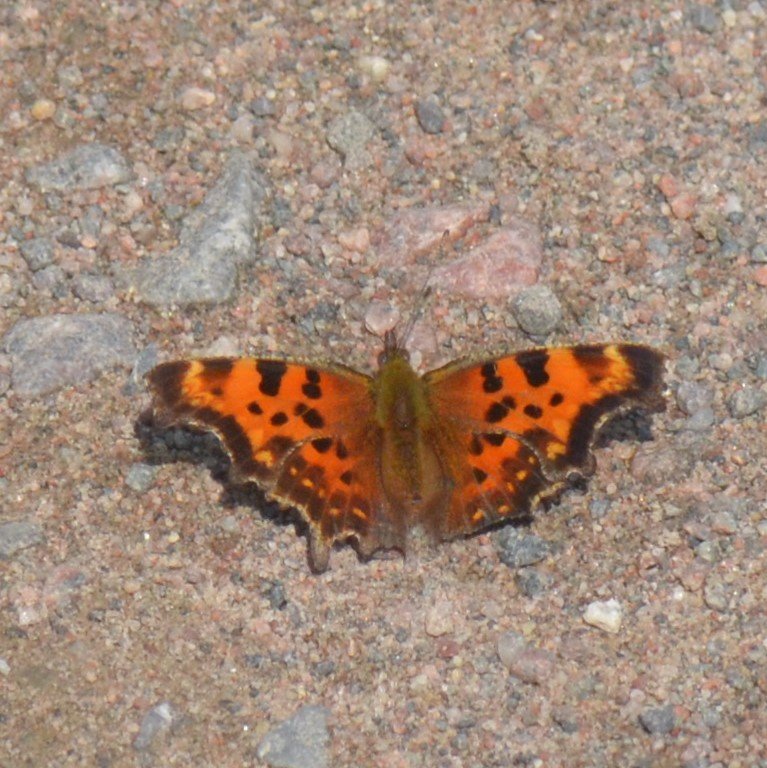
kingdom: Animalia
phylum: Arthropoda
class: Insecta
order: Lepidoptera
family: Nymphalidae
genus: Polygonia
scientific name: Polygonia faunus
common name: Green Comma
